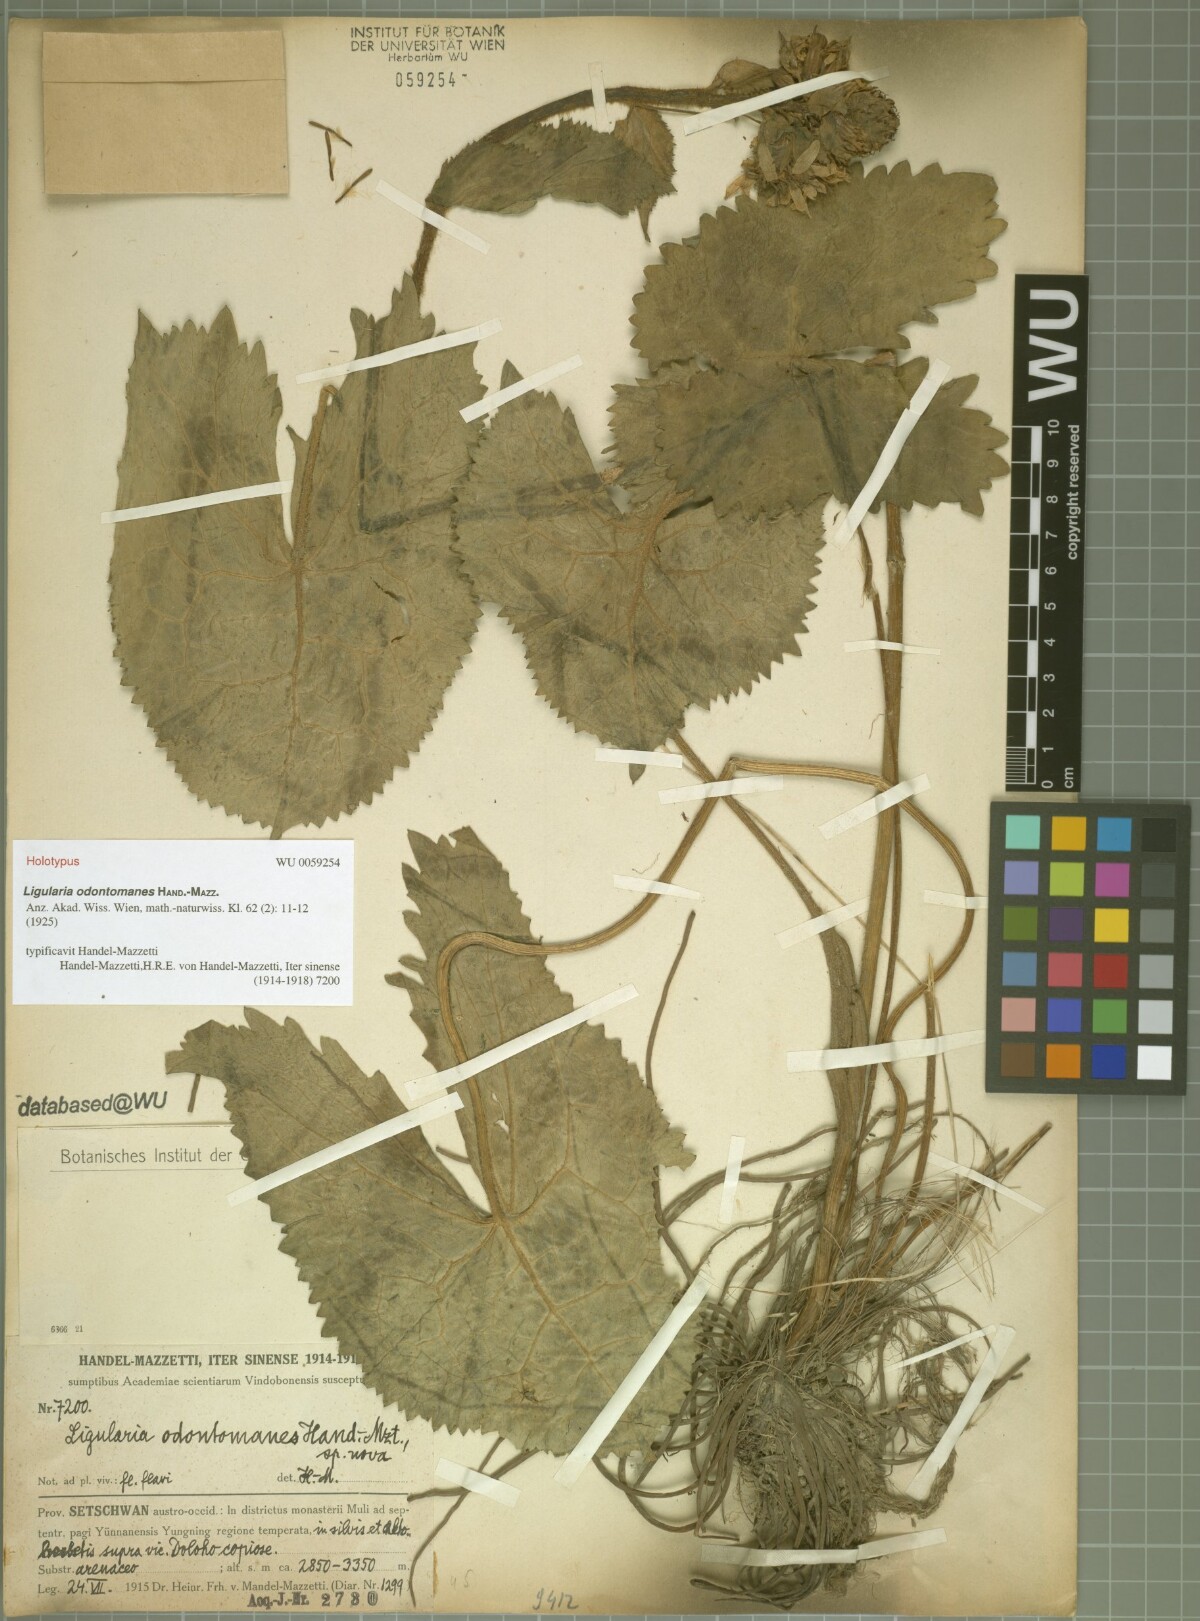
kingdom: Plantae
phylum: Tracheophyta
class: Magnoliopsida
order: Asterales
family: Asteraceae
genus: Ligularia
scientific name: Ligularia odontomanes
